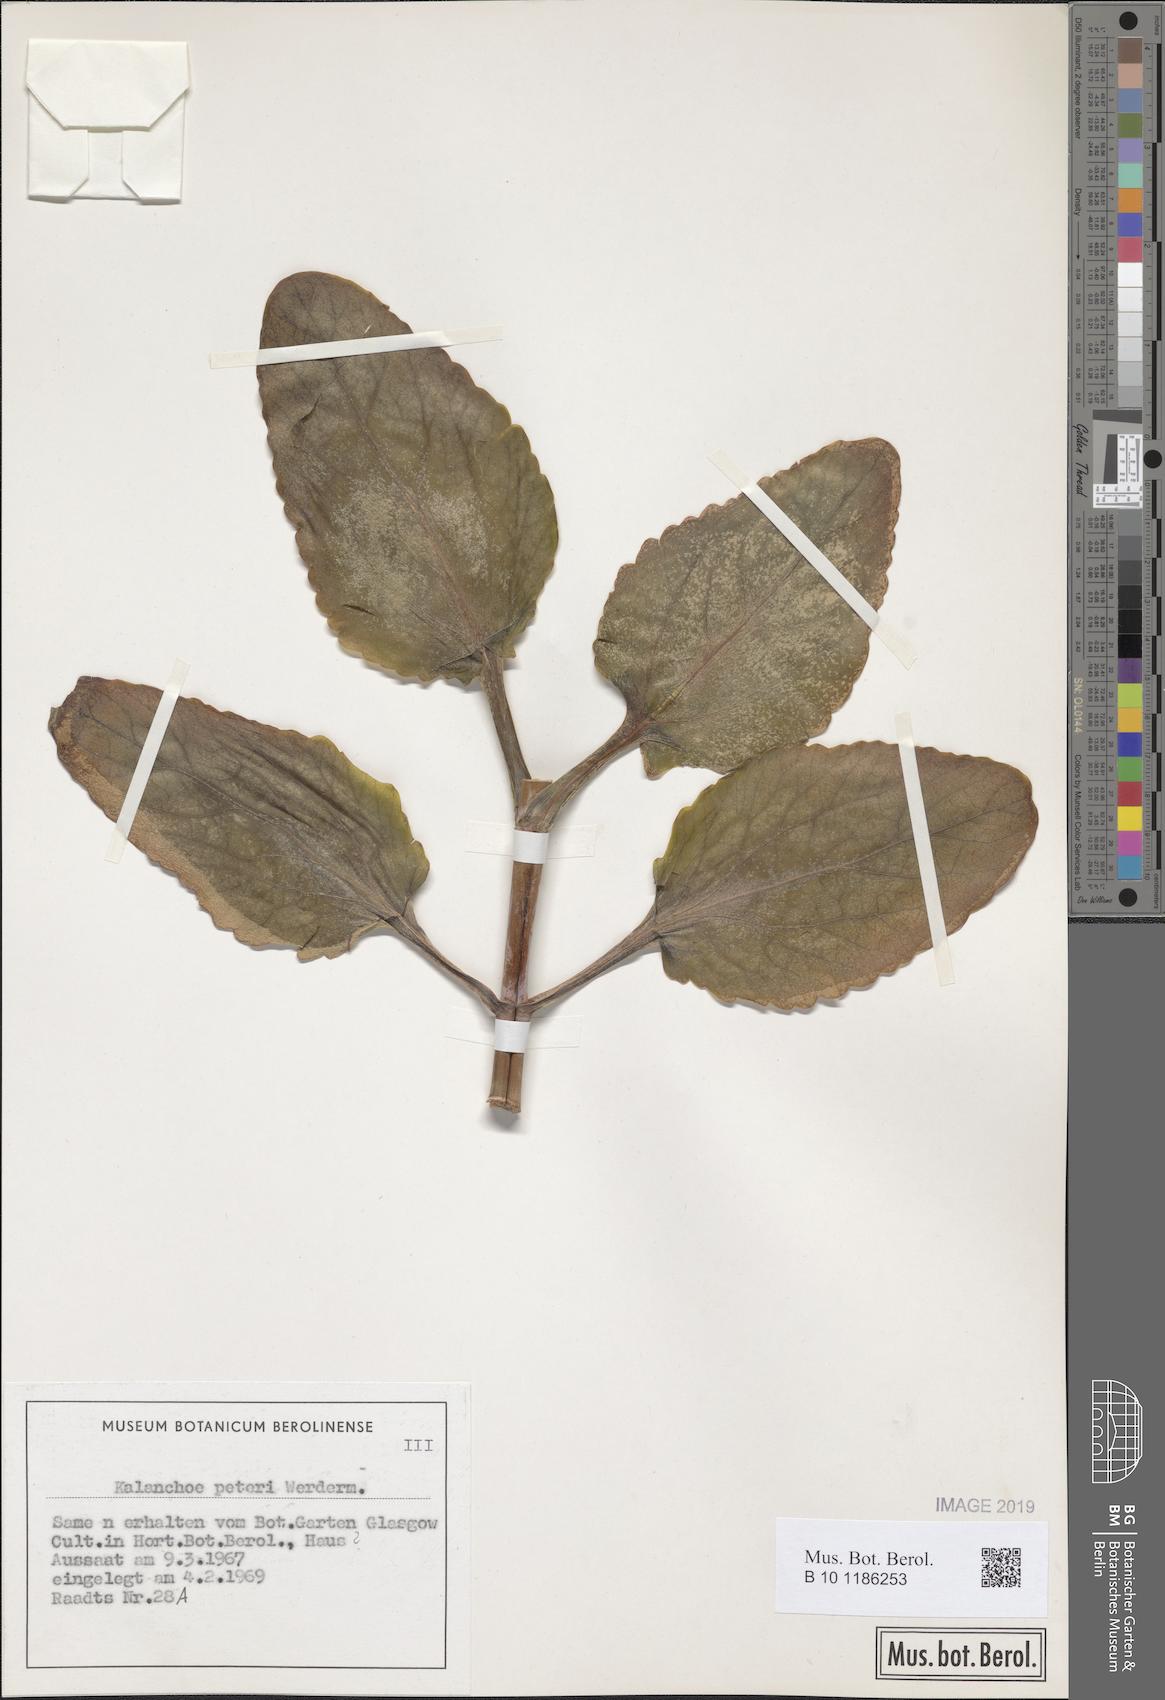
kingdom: Plantae
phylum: Tracheophyta
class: Magnoliopsida
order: Saxifragales
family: Crassulaceae
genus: Kalanchoe
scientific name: Kalanchoe peteri
